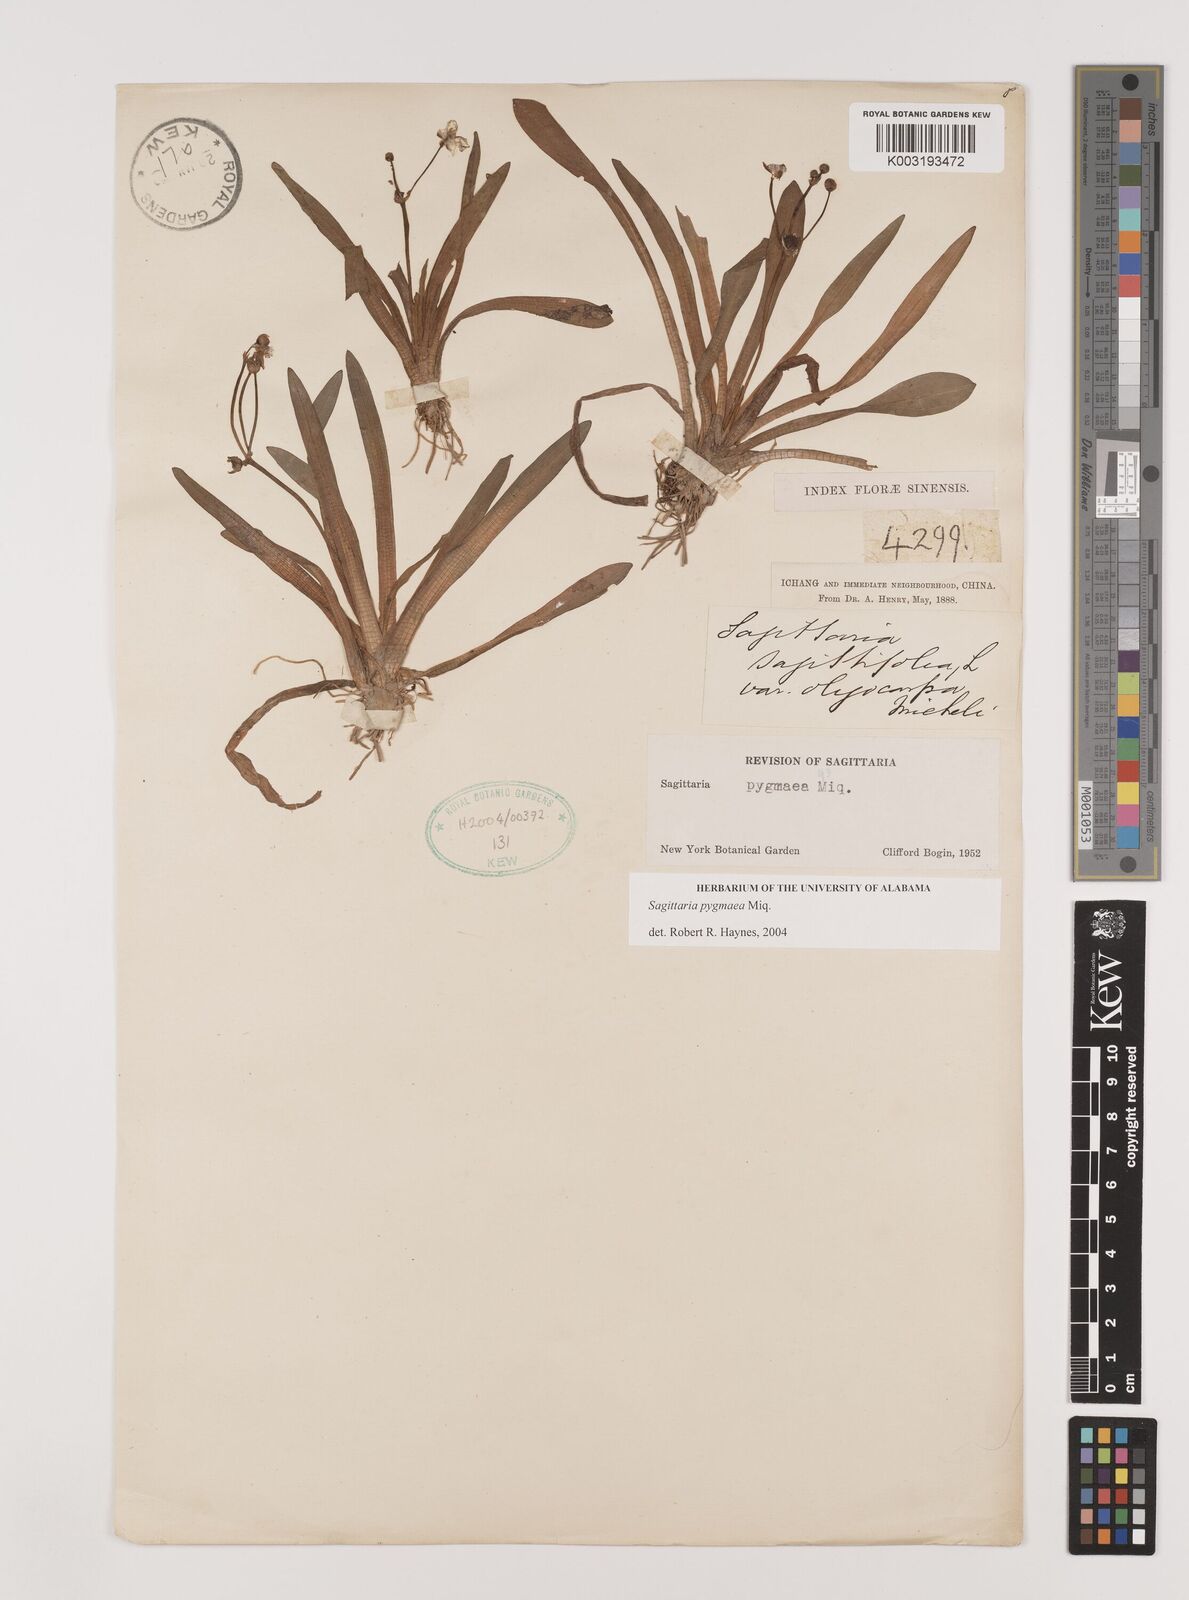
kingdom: Plantae
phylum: Tracheophyta
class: Liliopsida
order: Alismatales
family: Alismataceae
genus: Sagittaria
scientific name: Sagittaria pygmaea
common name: Pygmy arrowhead
